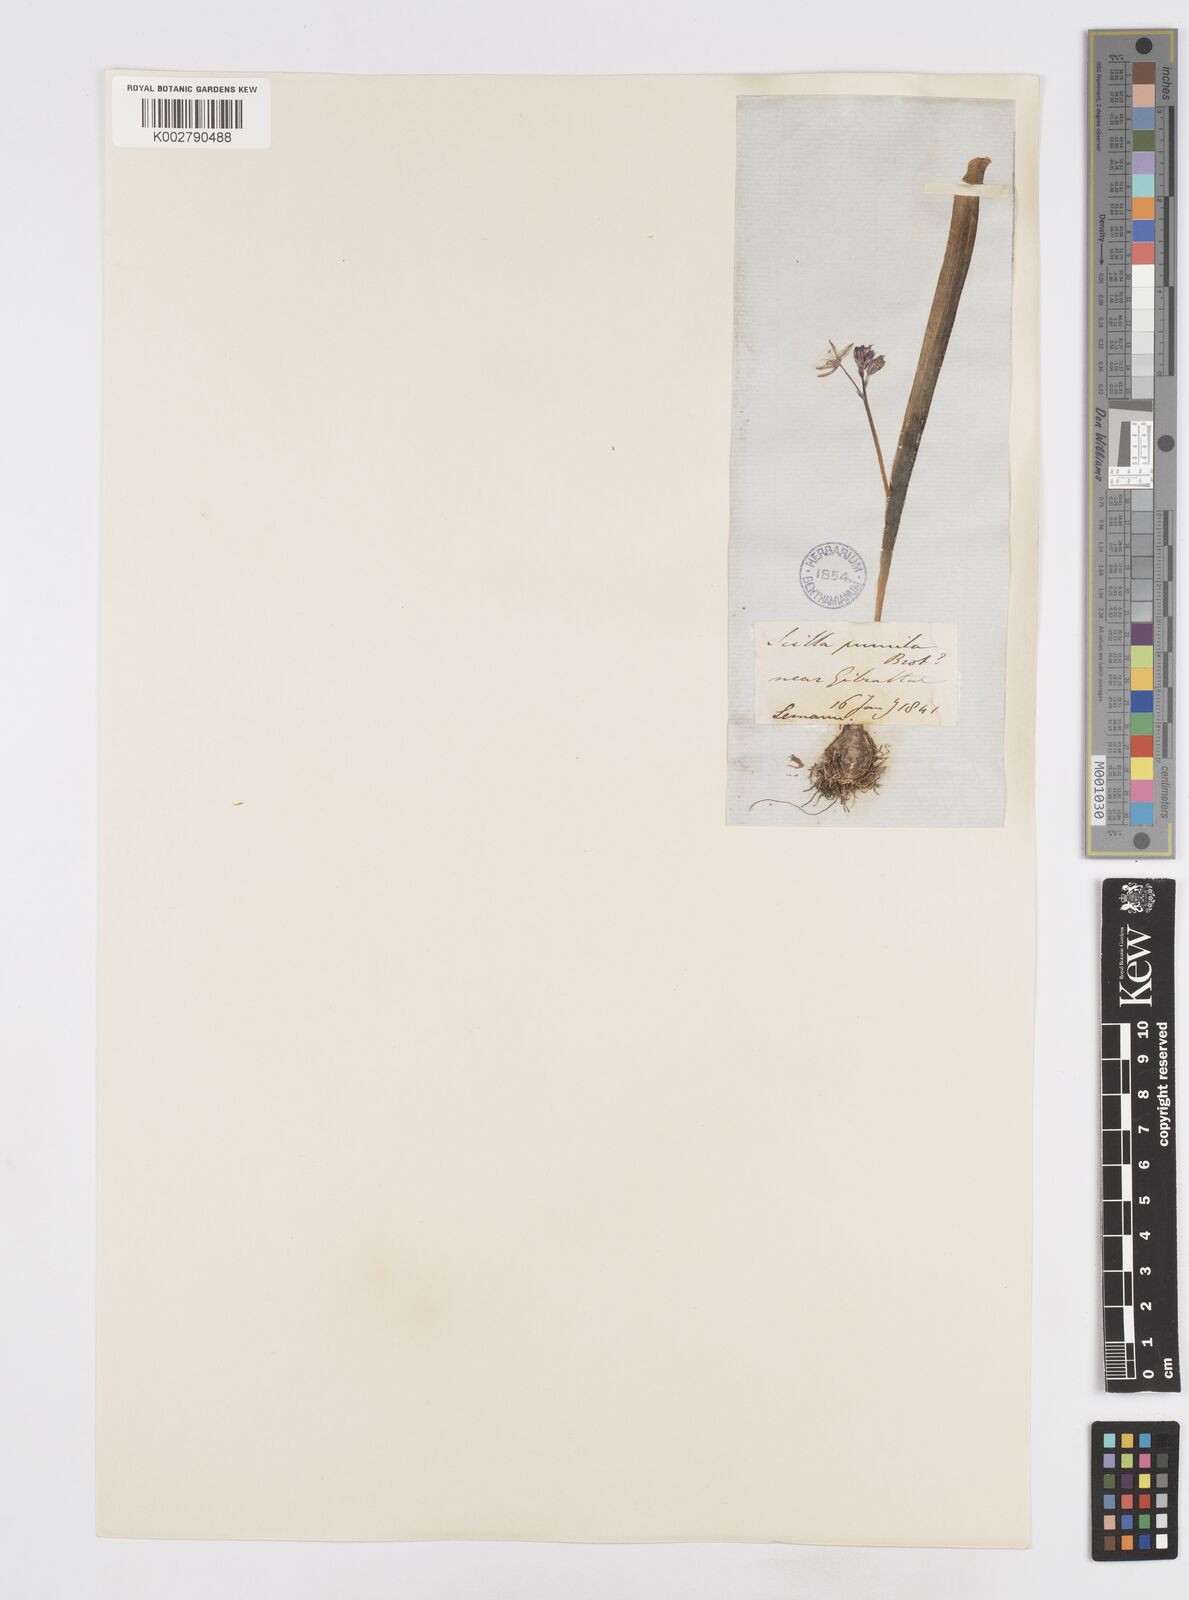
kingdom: Plantae
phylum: Tracheophyta
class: Liliopsida
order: Asparagales
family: Asparagaceae
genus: Scilla
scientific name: Scilla monophyllos
